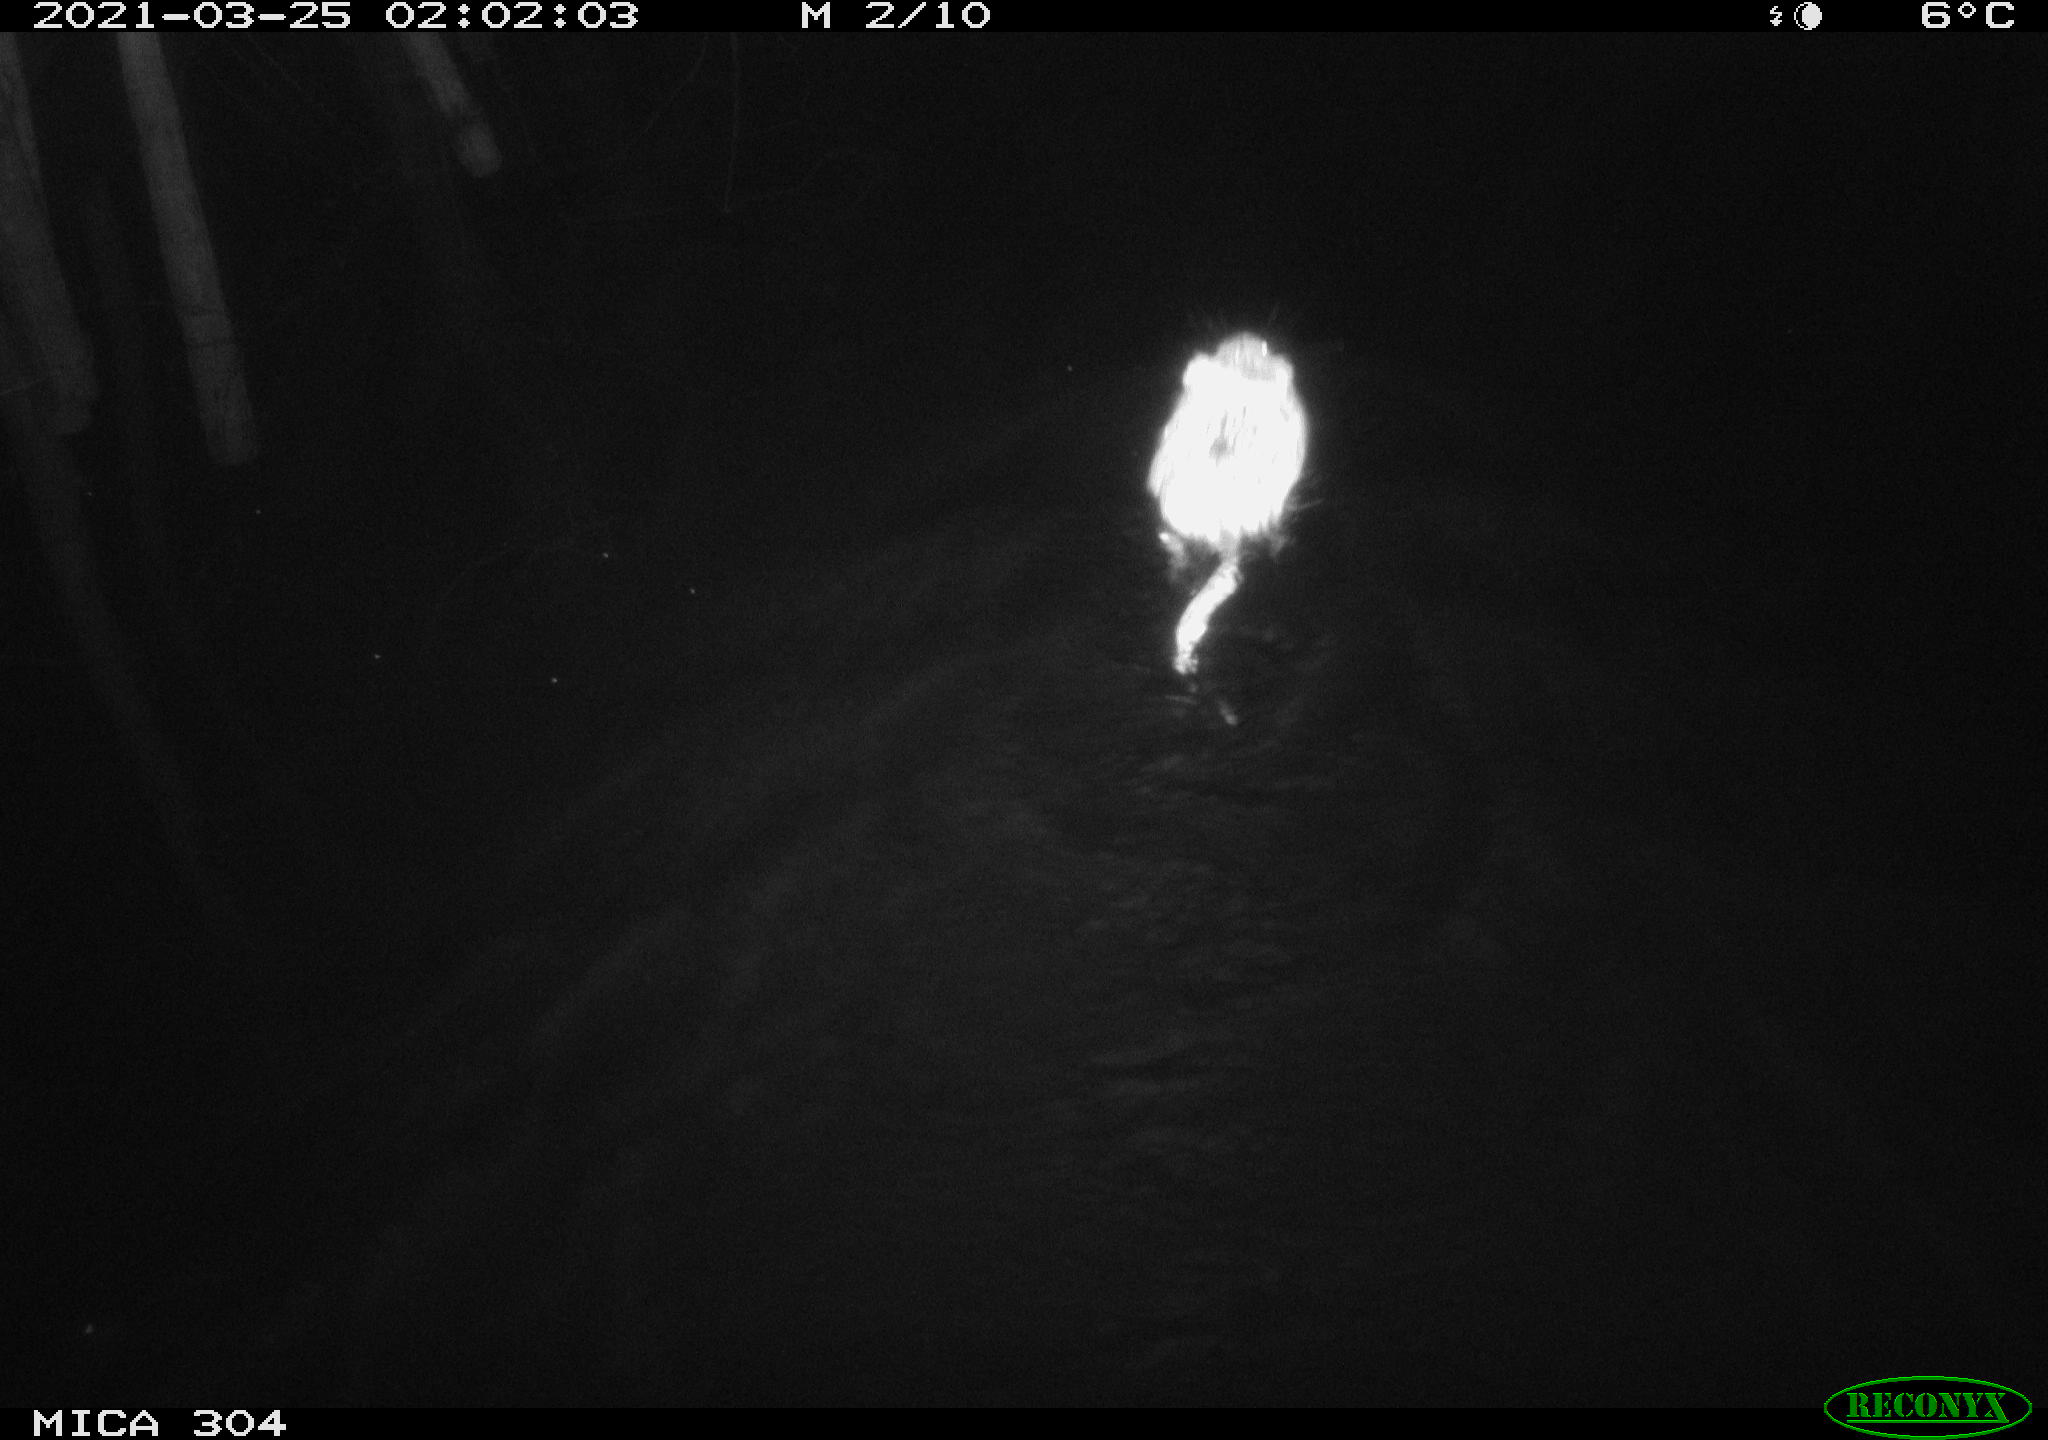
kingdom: Animalia
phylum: Chordata
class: Mammalia
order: Rodentia
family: Cricetidae
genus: Ondatra
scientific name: Ondatra zibethicus
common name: Muskrat
